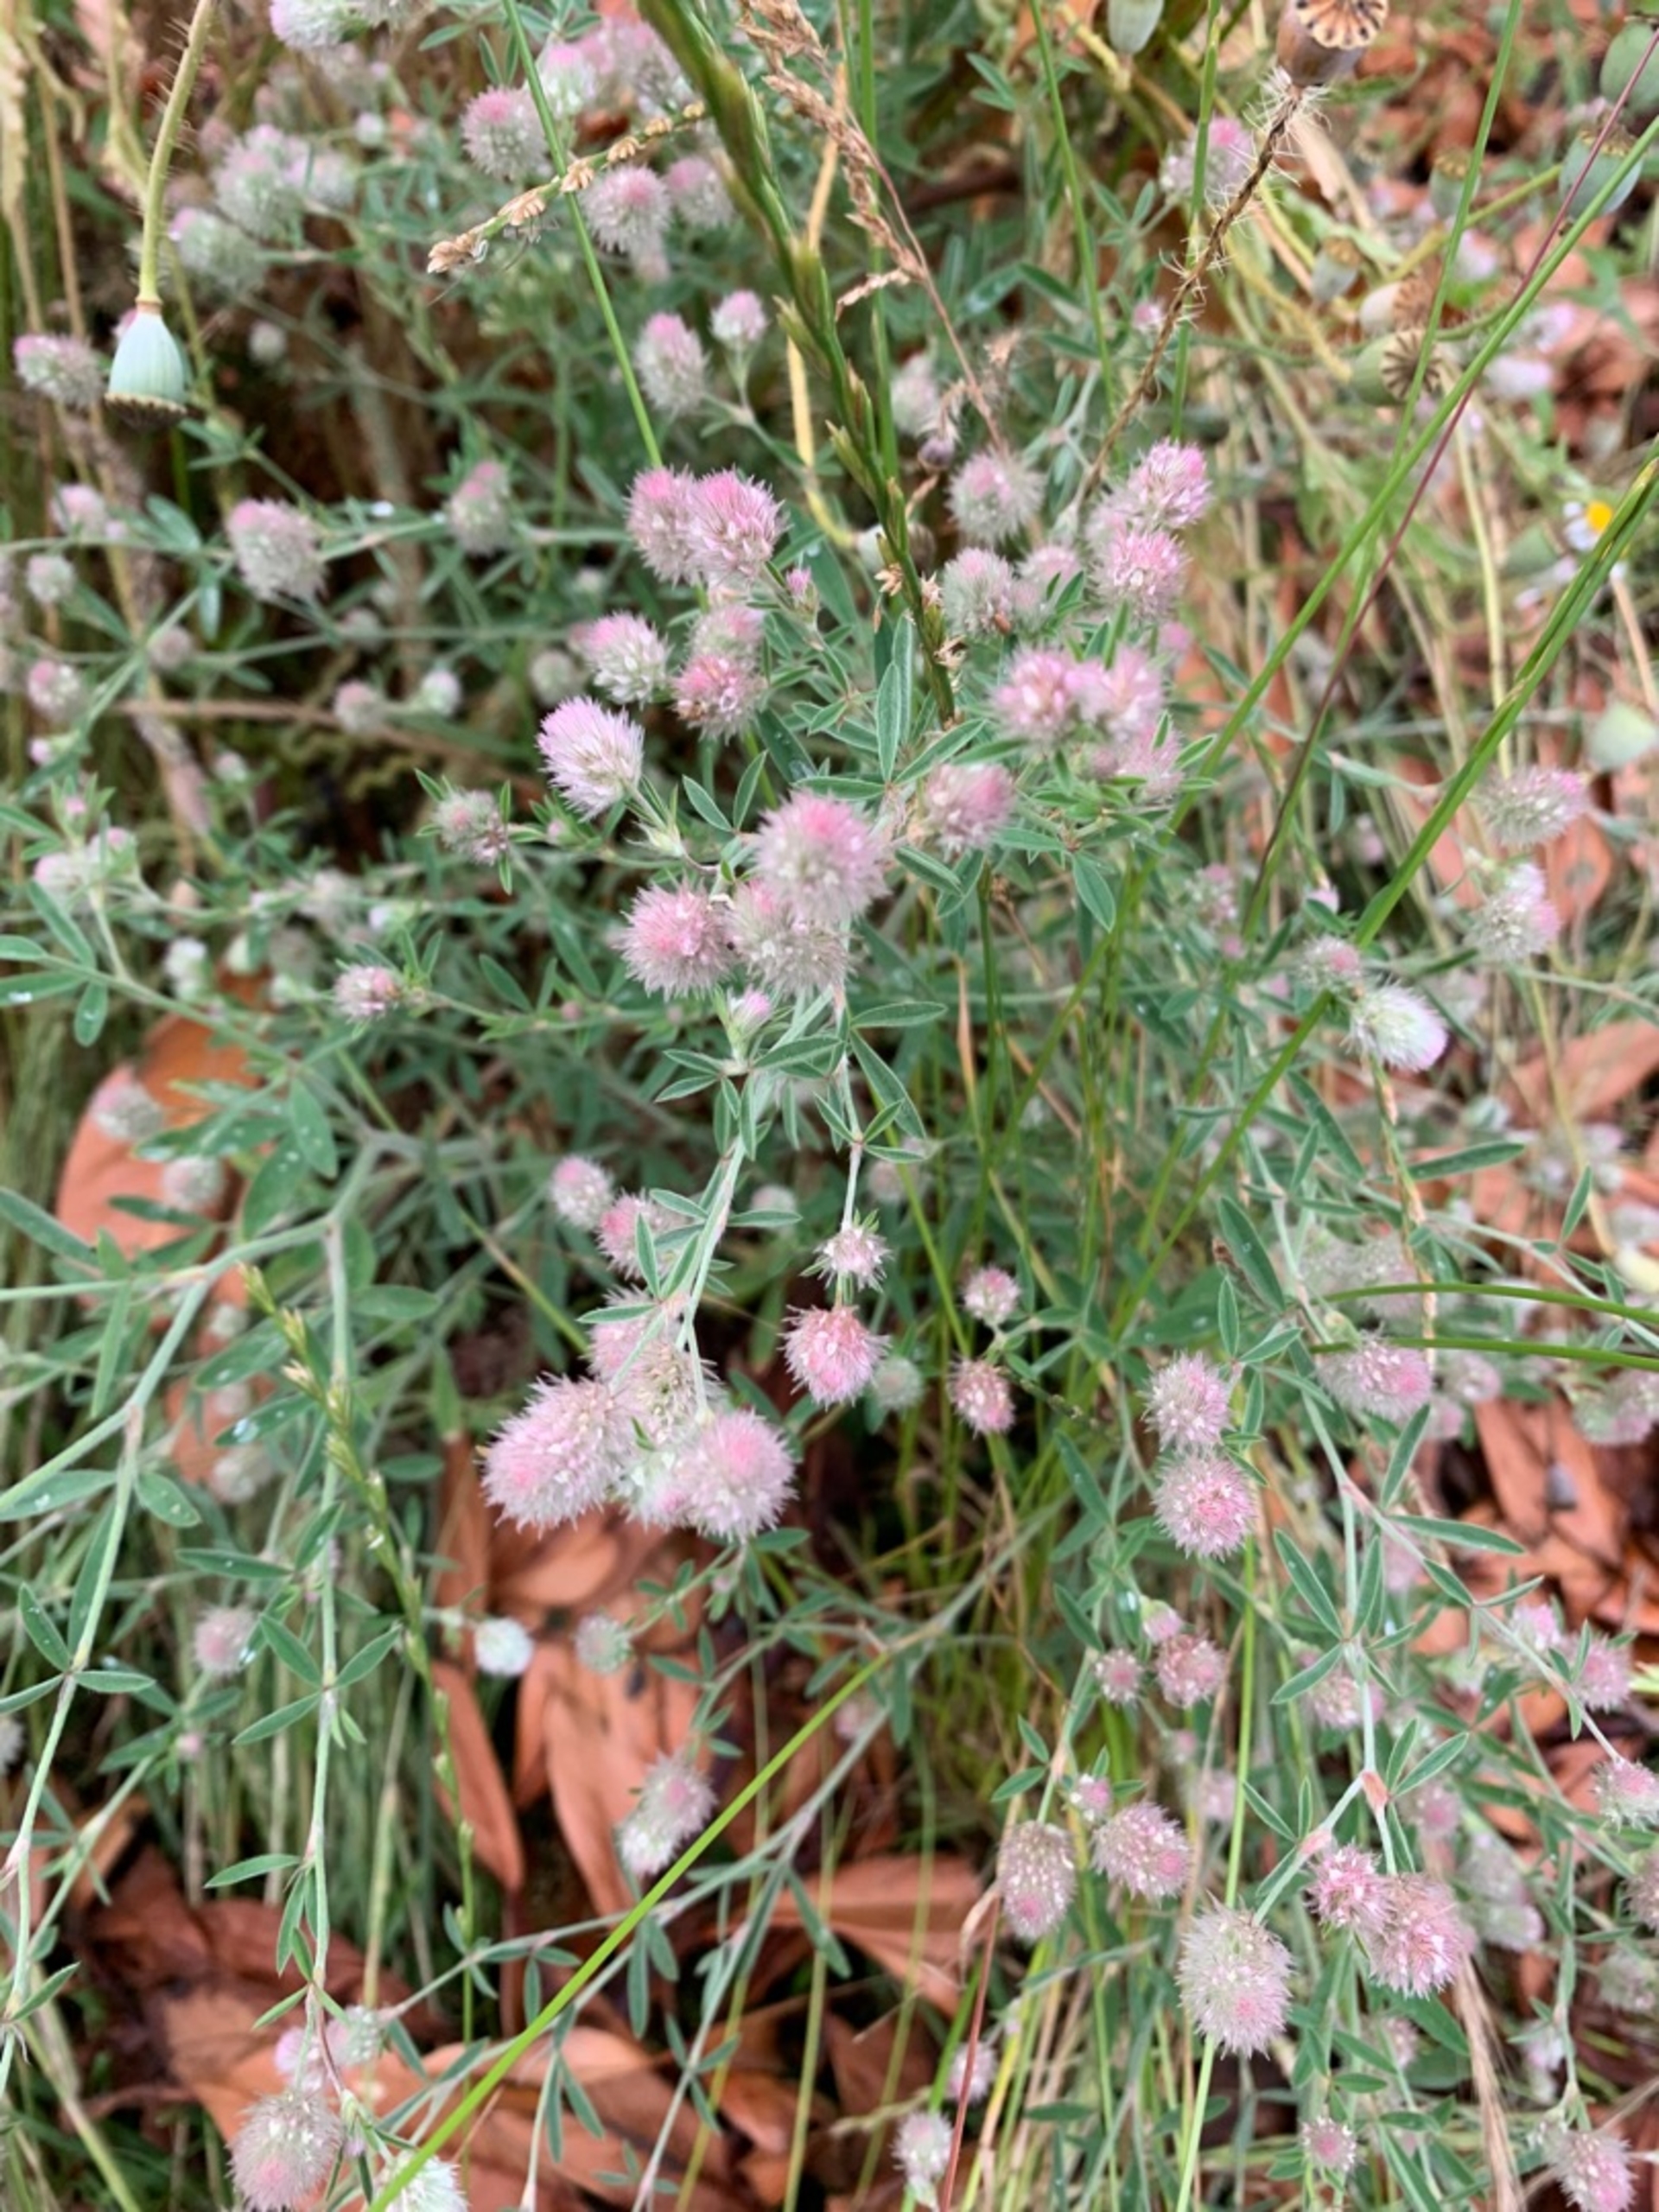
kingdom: Plantae
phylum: Tracheophyta
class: Magnoliopsida
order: Fabales
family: Fabaceae
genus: Trifolium
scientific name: Trifolium arvense
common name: Hare-kløver
